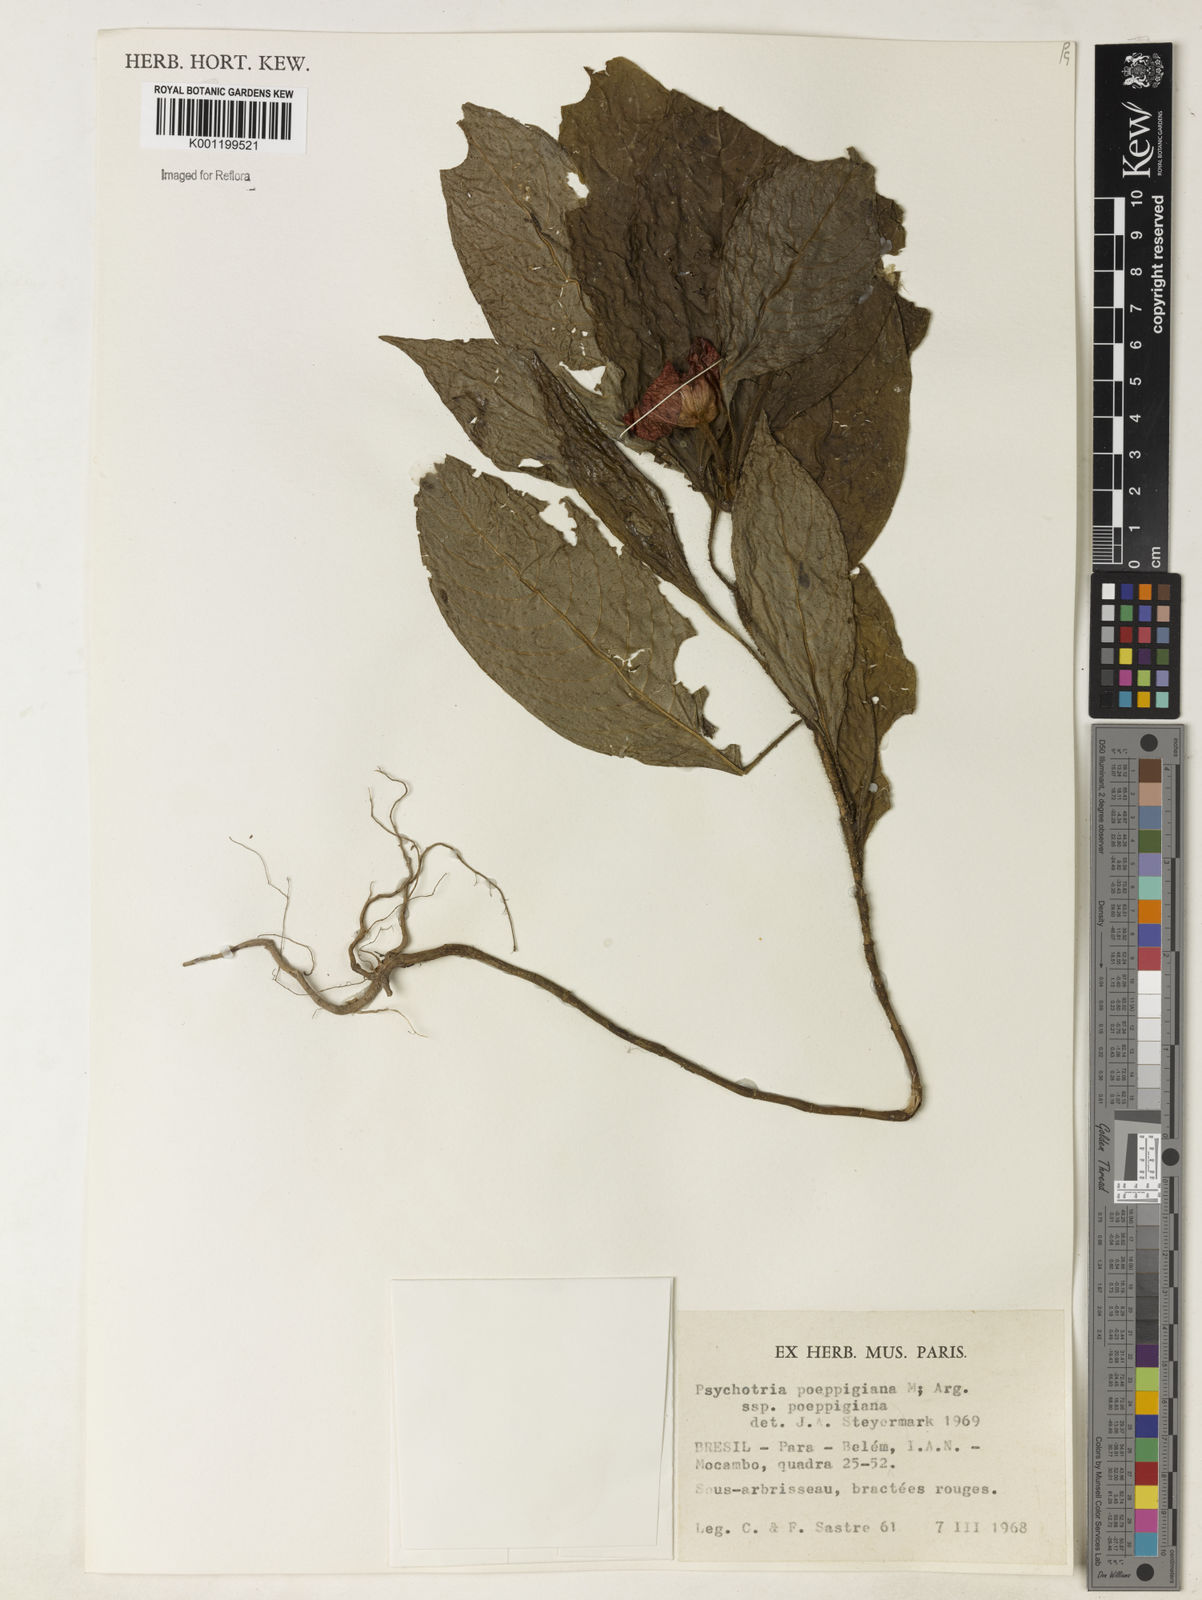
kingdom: Plantae
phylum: Tracheophyta
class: Magnoliopsida
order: Gentianales
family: Rubiaceae
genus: Psychotria
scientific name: Psychotria
